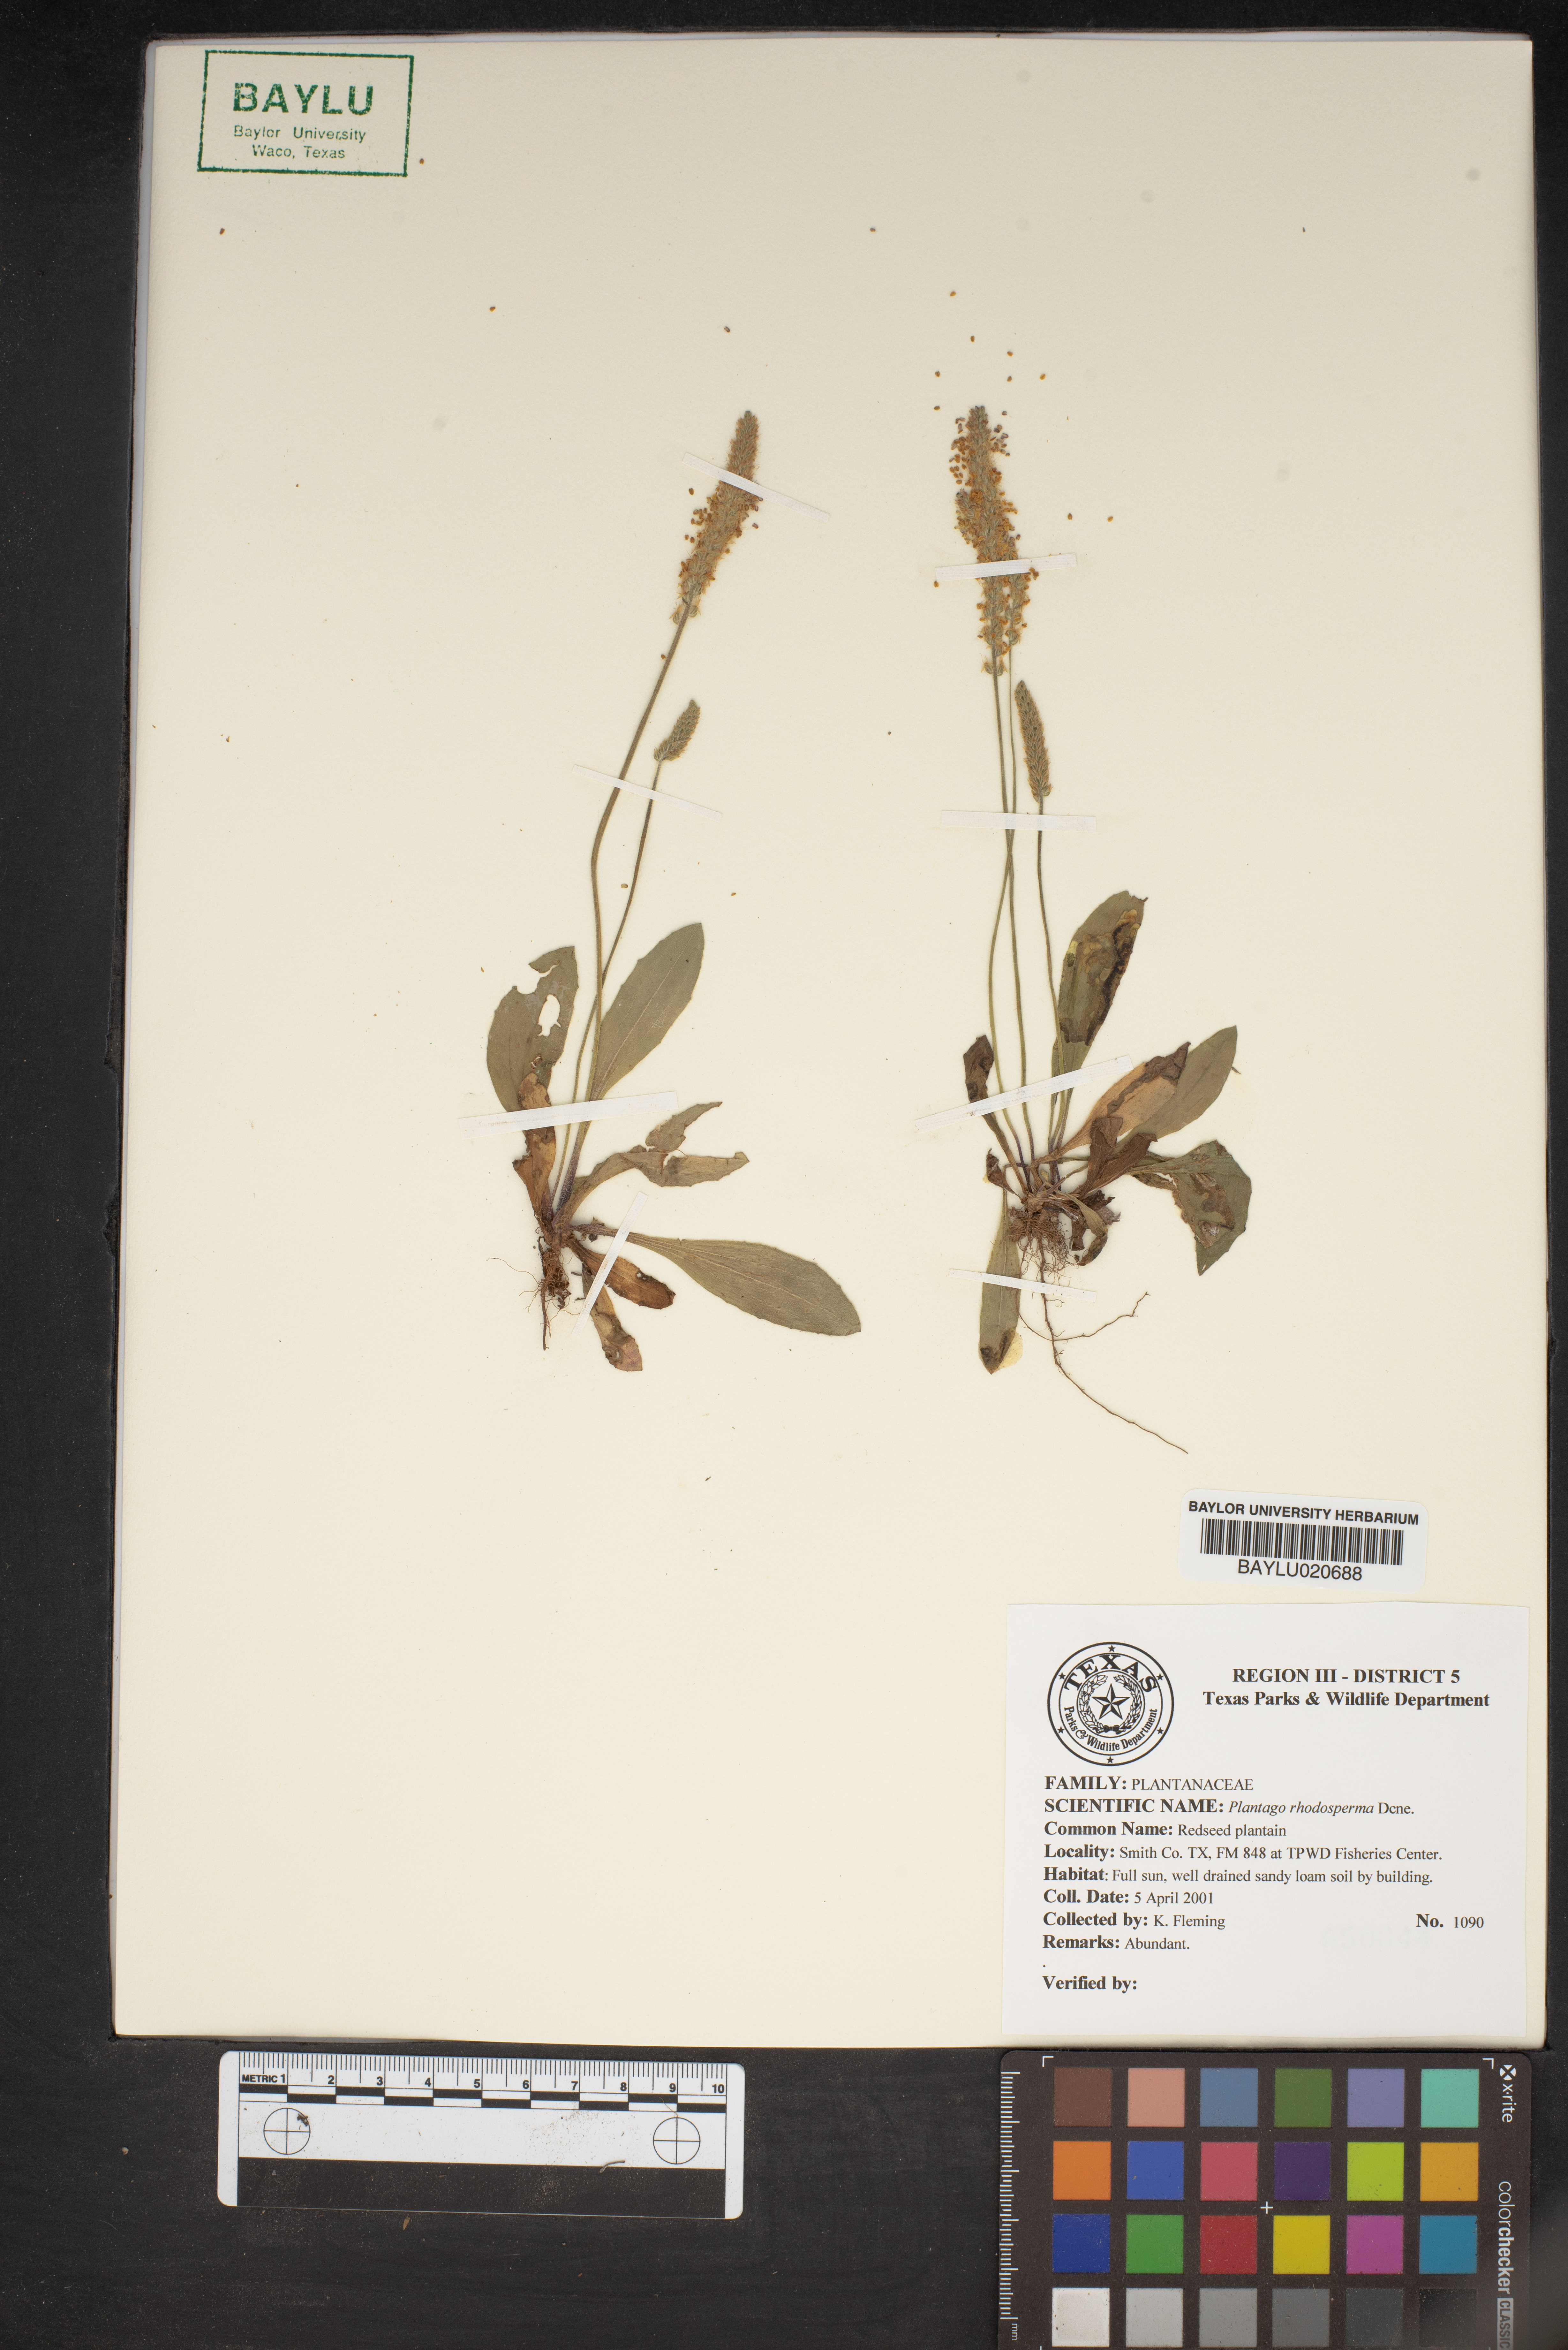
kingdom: Plantae
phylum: Tracheophyta
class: Magnoliopsida
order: Lamiales
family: Plantaginaceae
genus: Plantago
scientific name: Plantago rhodosperma
